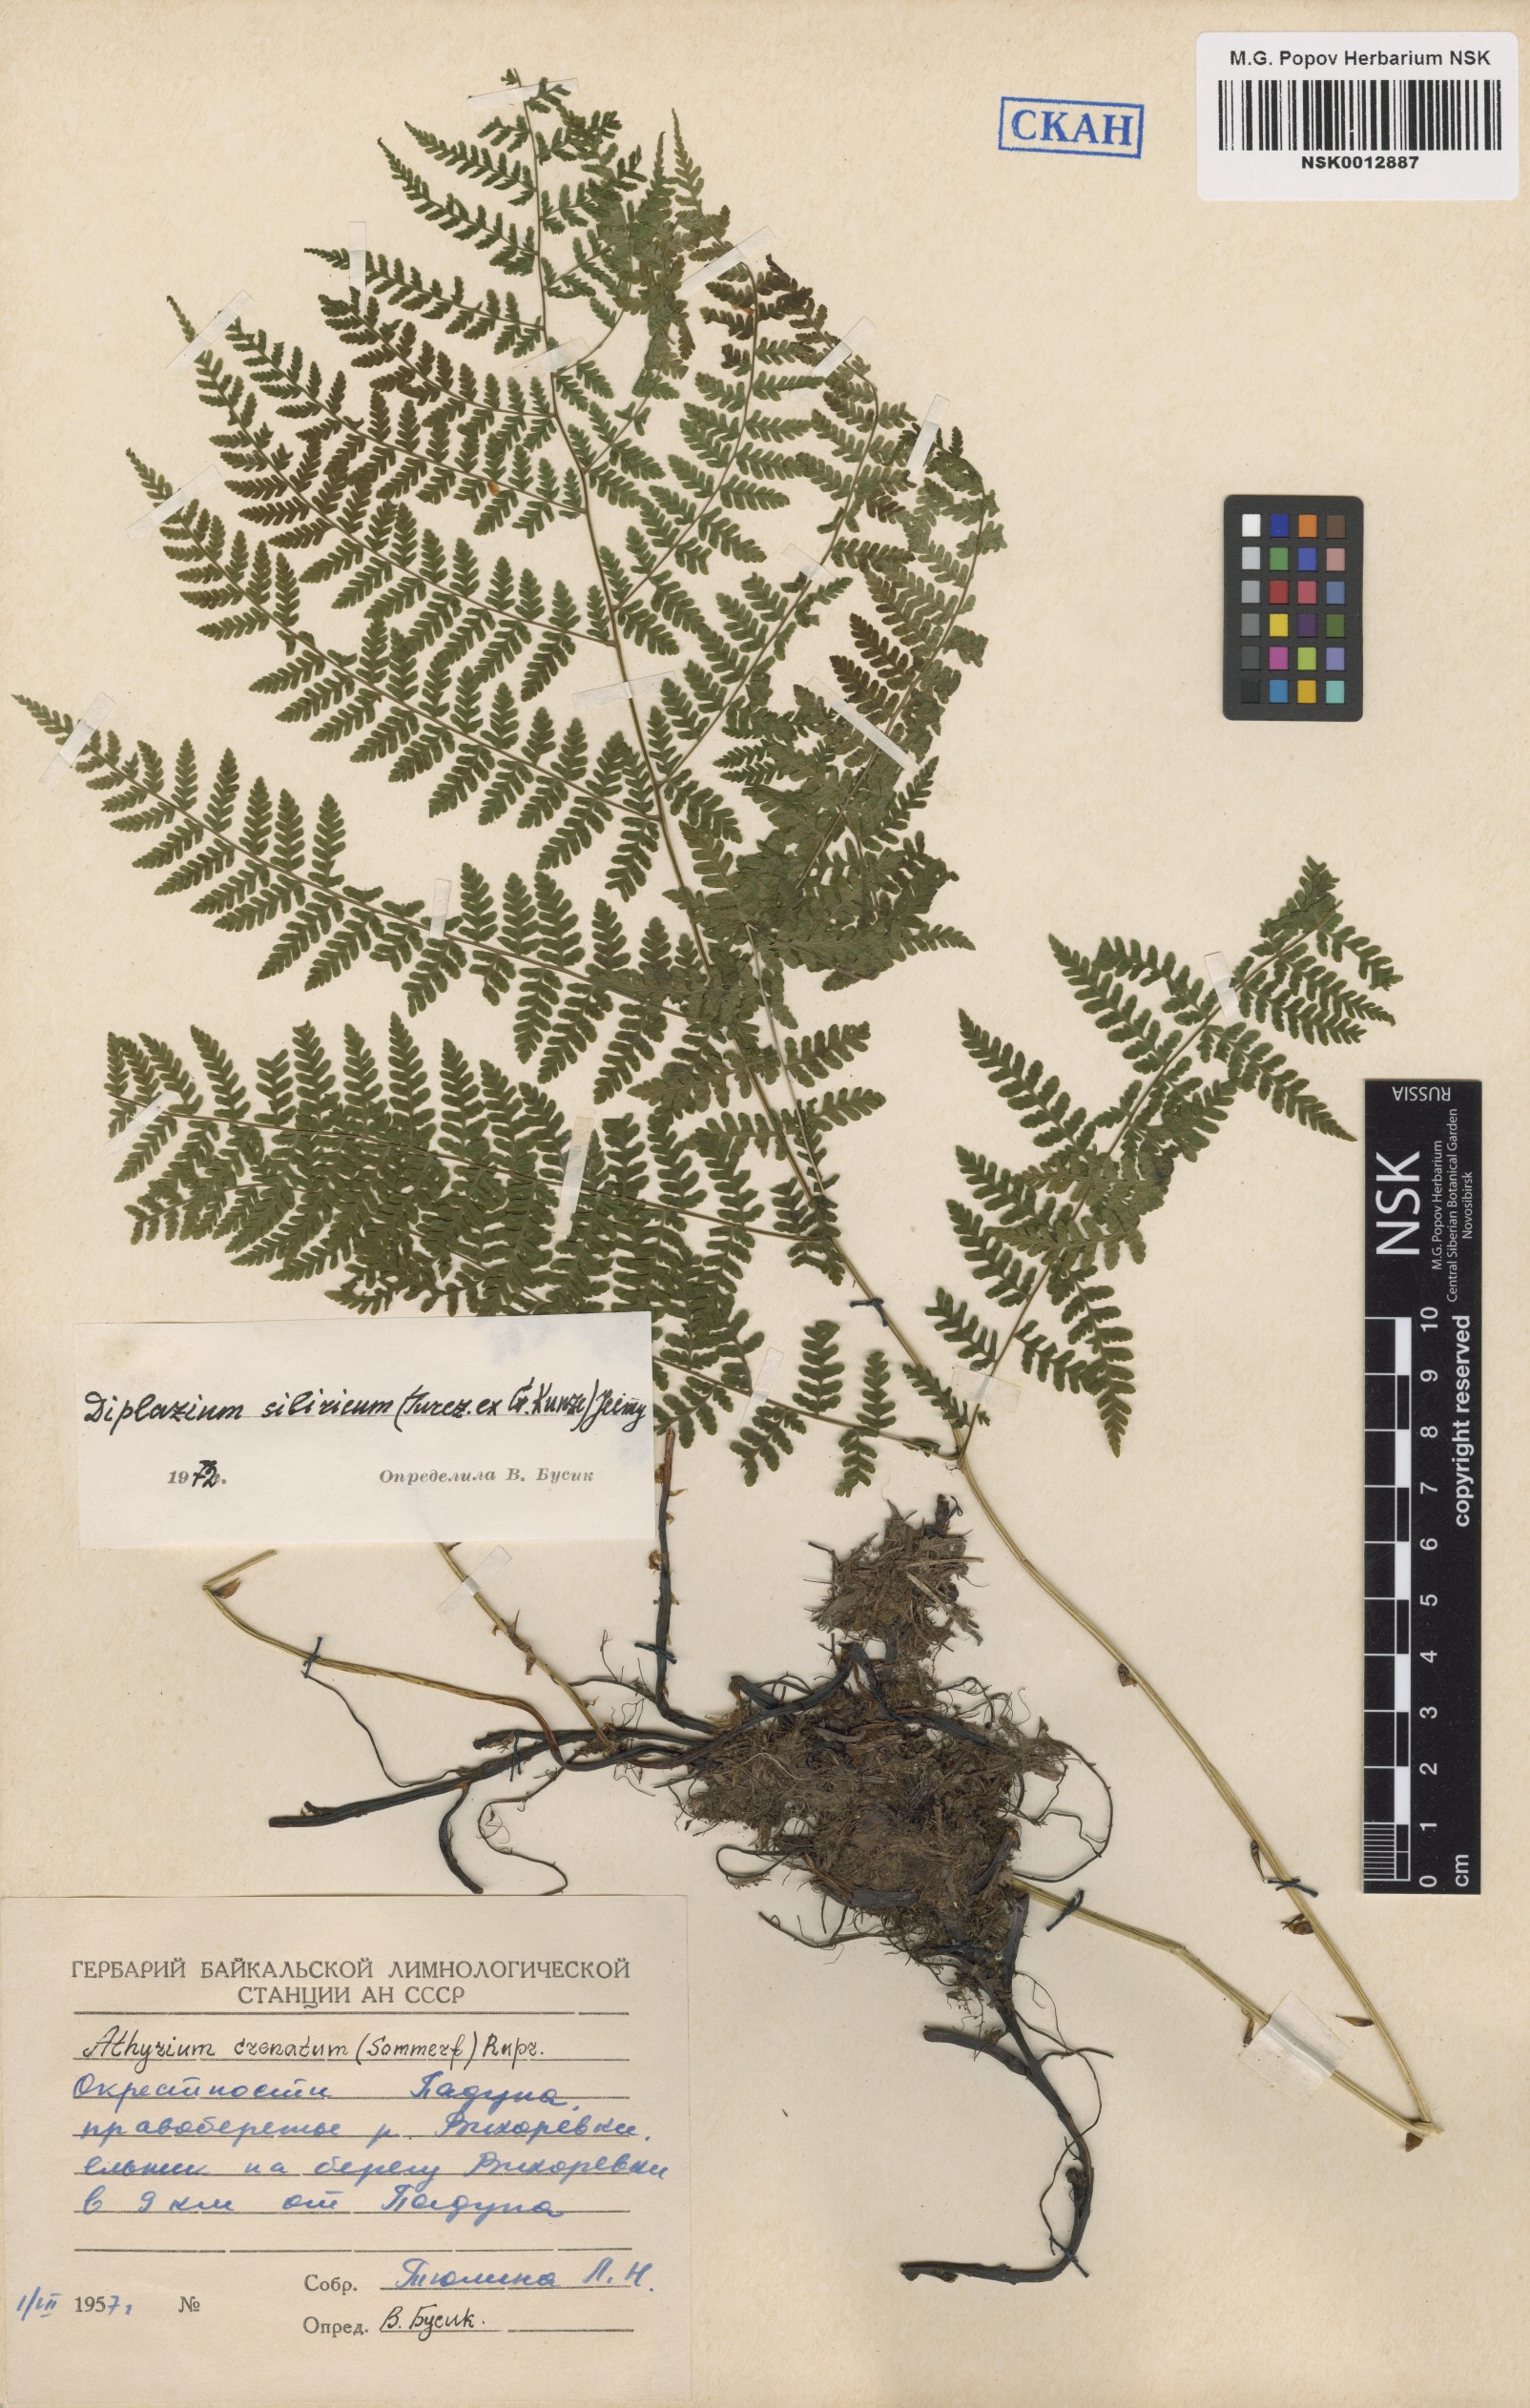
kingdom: Plantae
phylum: Tracheophyta
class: Polypodiopsida
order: Polypodiales
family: Athyriaceae
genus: Diplazium
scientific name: Diplazium sibiricum
